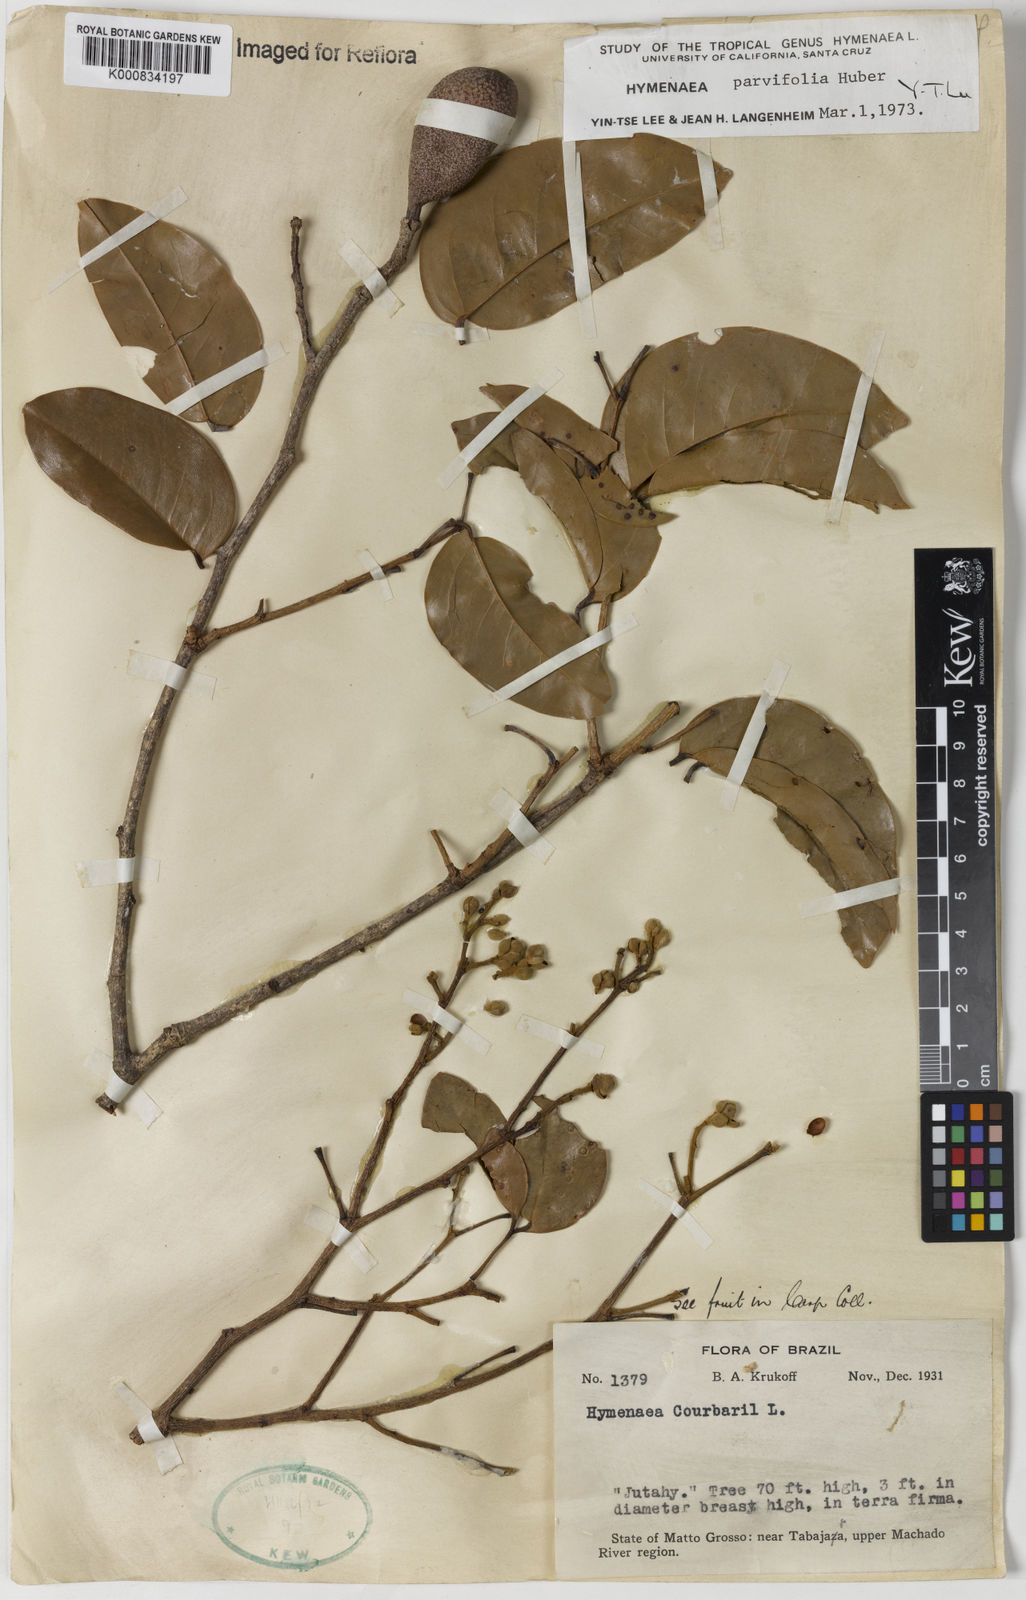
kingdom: Plantae
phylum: Tracheophyta
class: Magnoliopsida
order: Fabales
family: Fabaceae
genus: Hymenaea
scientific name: Hymenaea parvifolia
